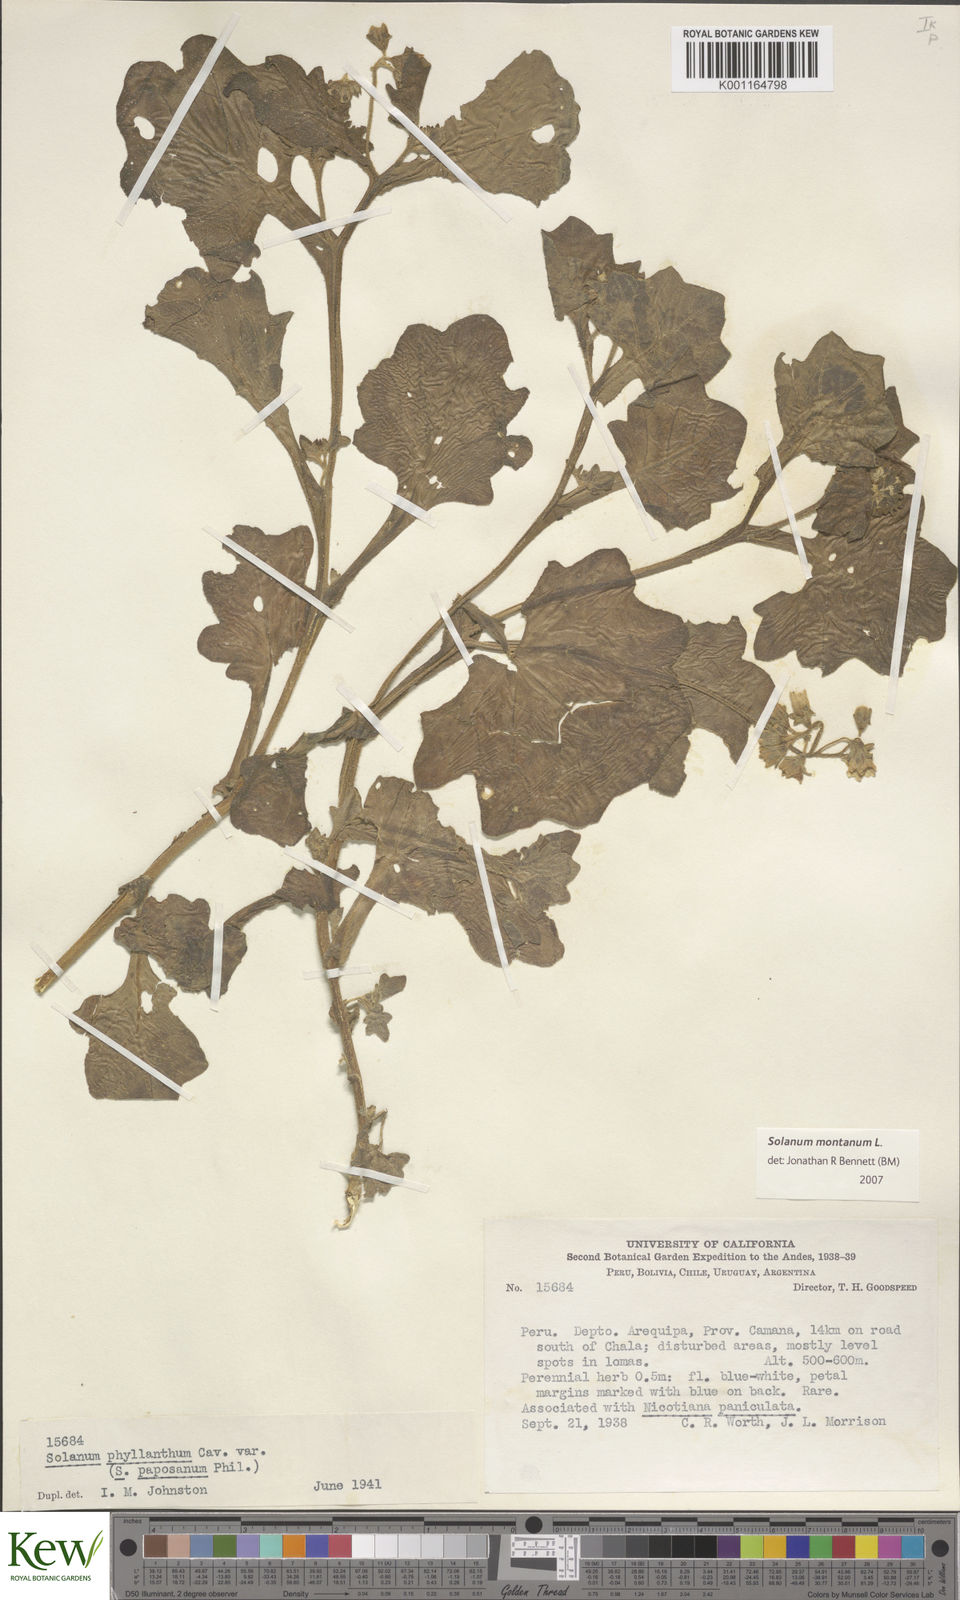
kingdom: Plantae
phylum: Tracheophyta
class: Magnoliopsida
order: Solanales
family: Solanaceae
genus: Solanum
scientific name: Solanum montanum
